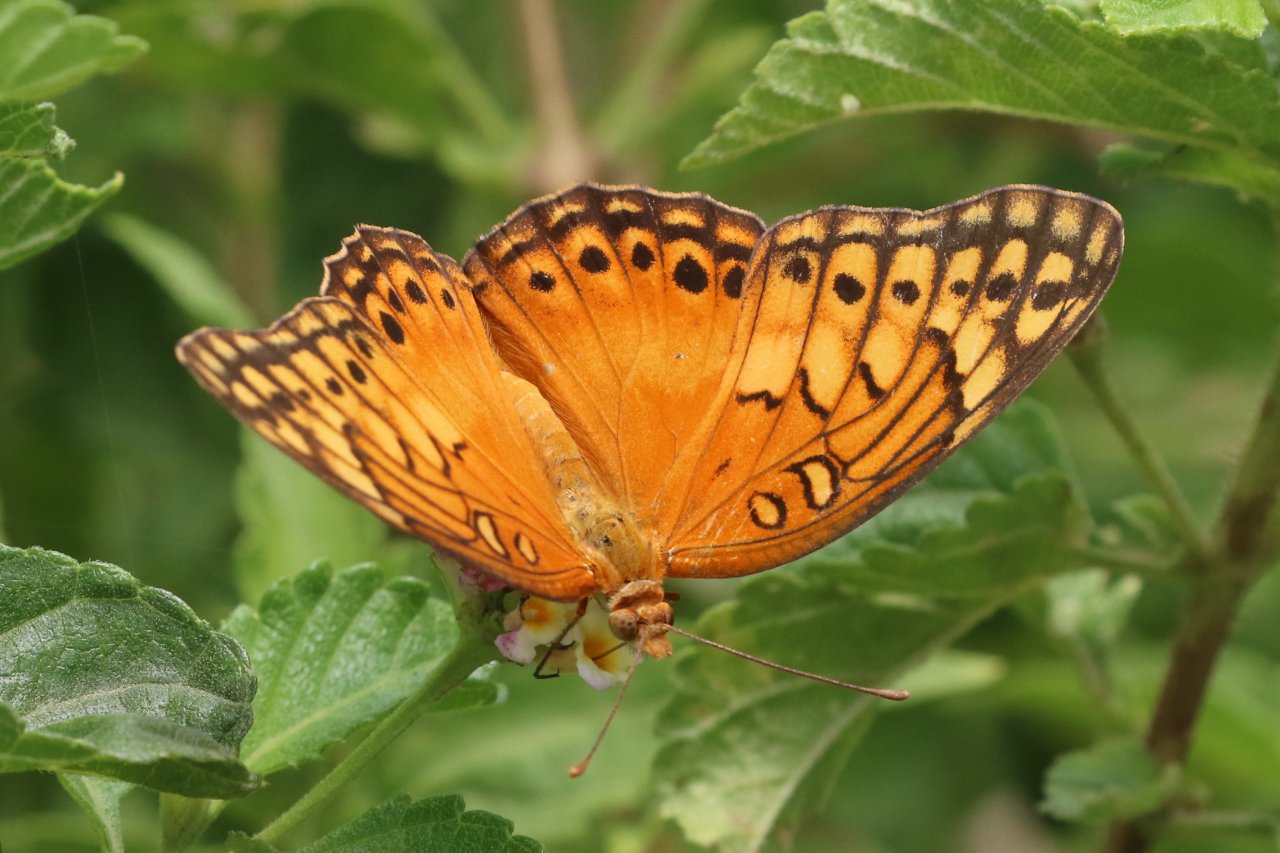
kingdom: Animalia
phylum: Arthropoda
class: Insecta
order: Lepidoptera
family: Nymphalidae
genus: Euptoieta
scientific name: Euptoieta hegesia
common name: Mexican Fritillary
